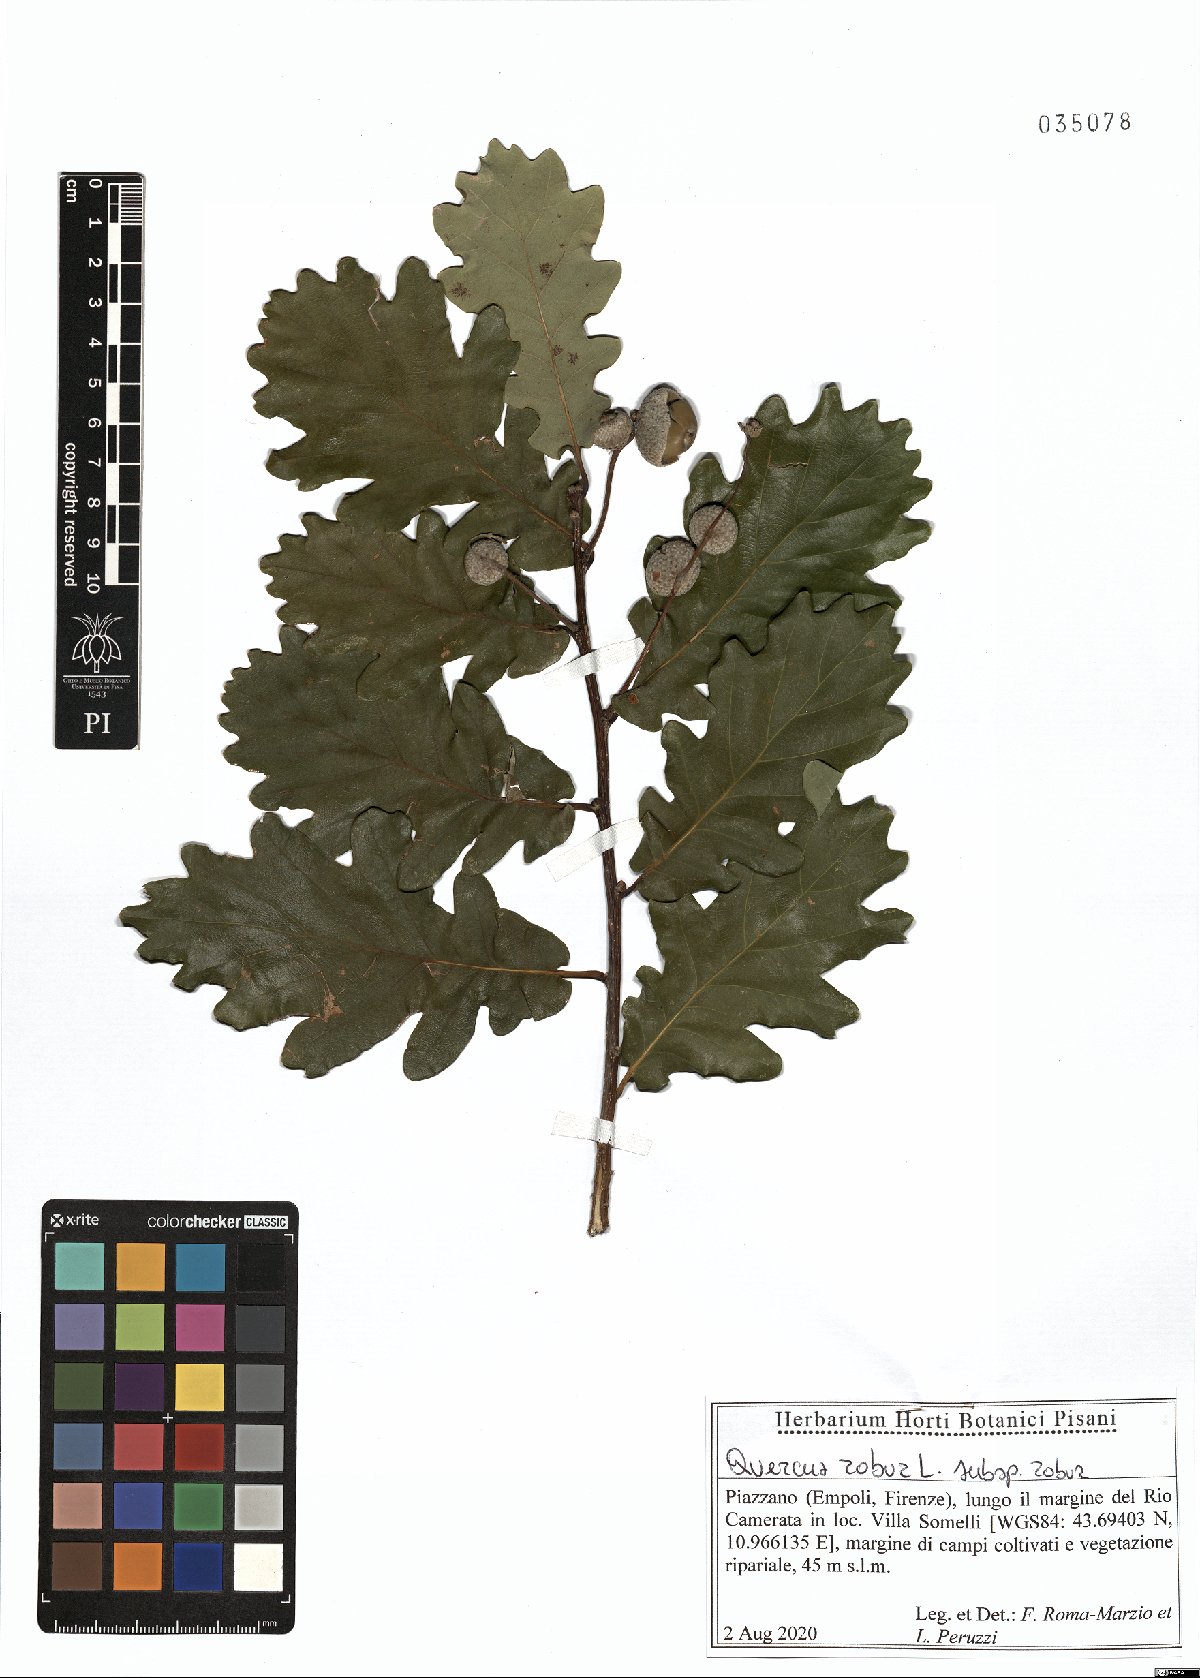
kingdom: Plantae
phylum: Tracheophyta
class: Magnoliopsida
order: Fagales
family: Fagaceae
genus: Quercus
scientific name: Quercus robur
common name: Pedunculate oak
